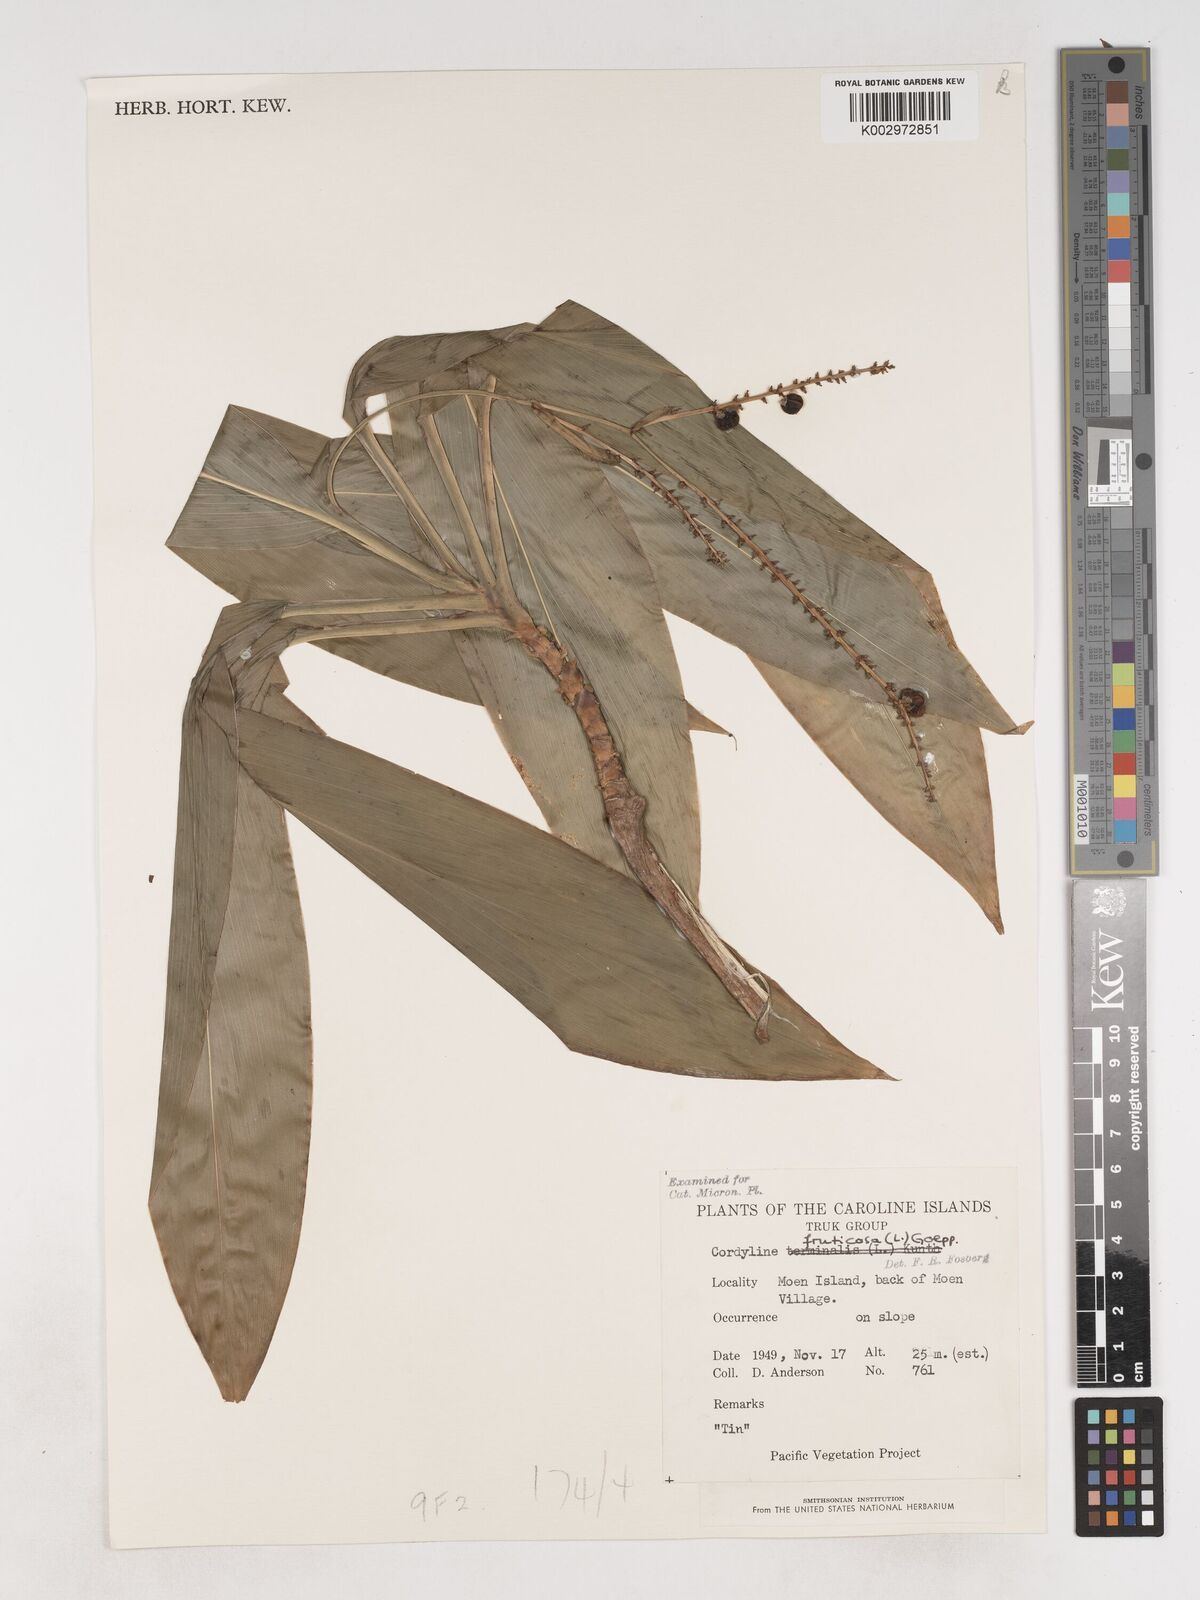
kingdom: Plantae
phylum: Tracheophyta
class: Liliopsida
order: Asparagales
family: Asparagaceae
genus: Dracaena
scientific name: Dracaena angustifolia
